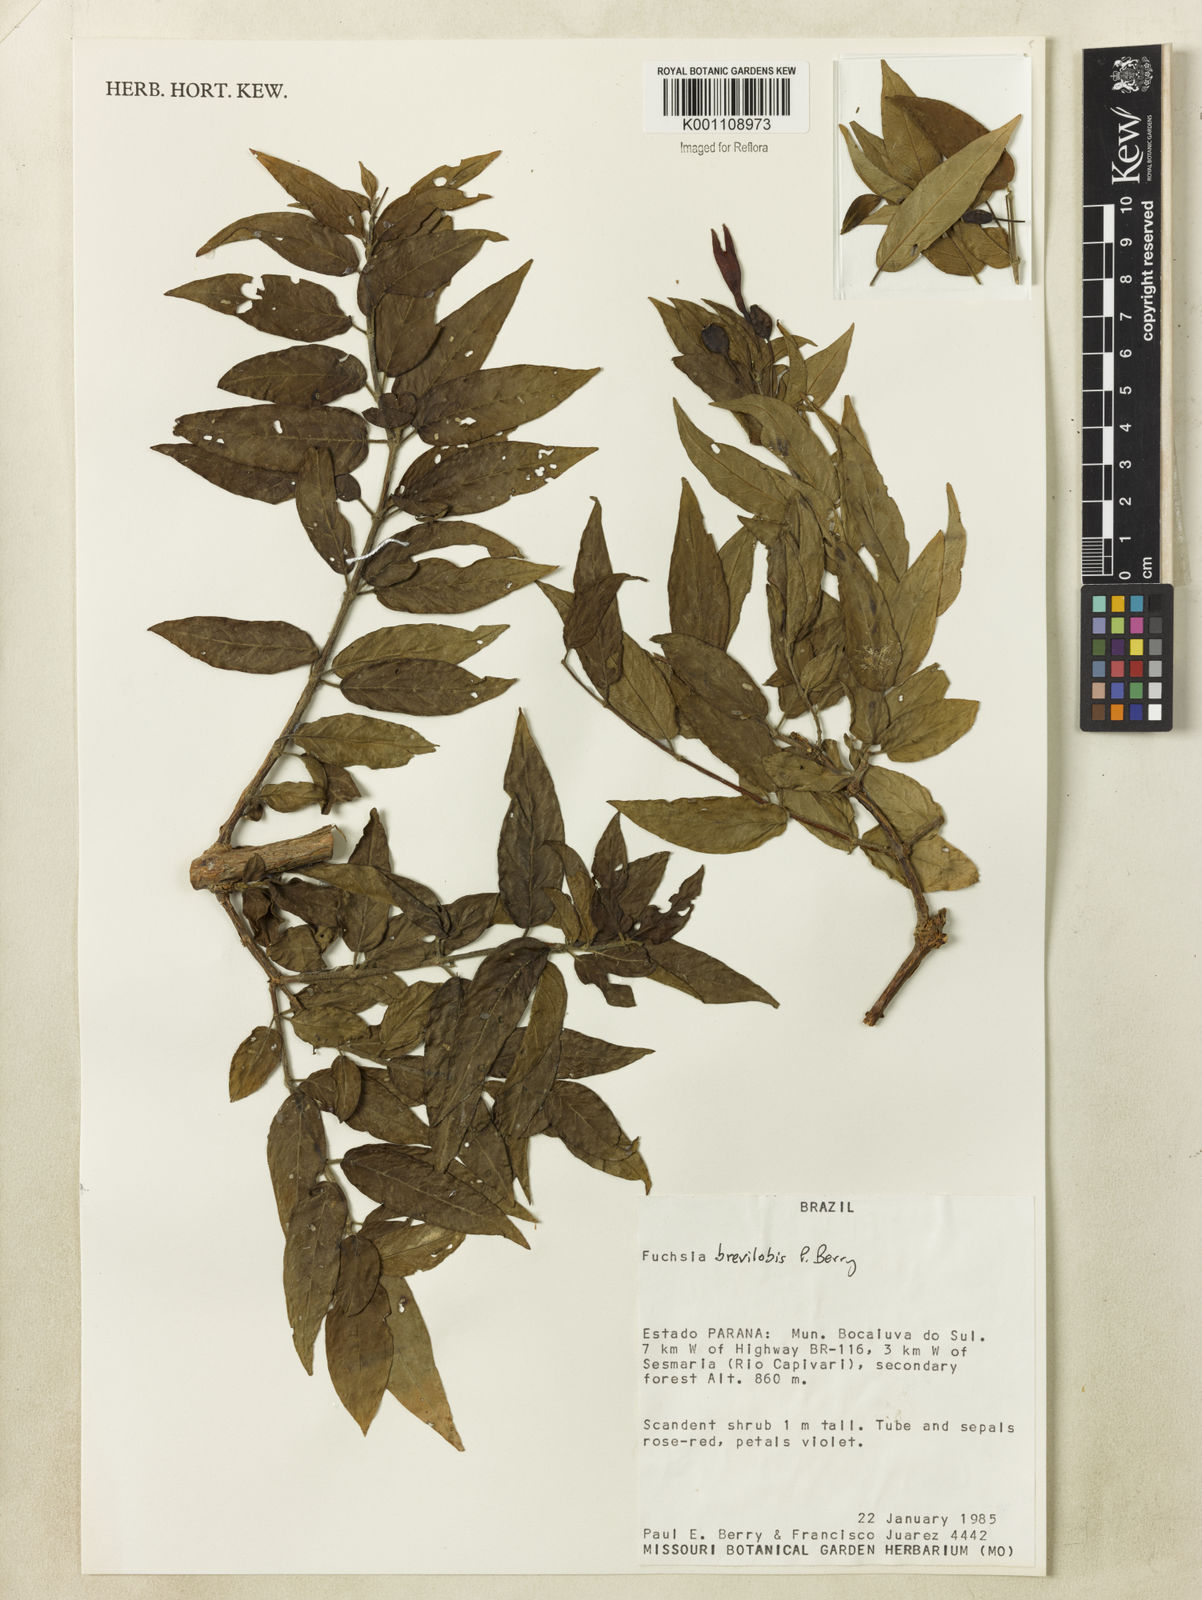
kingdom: Plantae
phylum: Tracheophyta
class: Magnoliopsida
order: Myrtales
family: Onagraceae
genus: Fuchsia
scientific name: Fuchsia brevilobis
